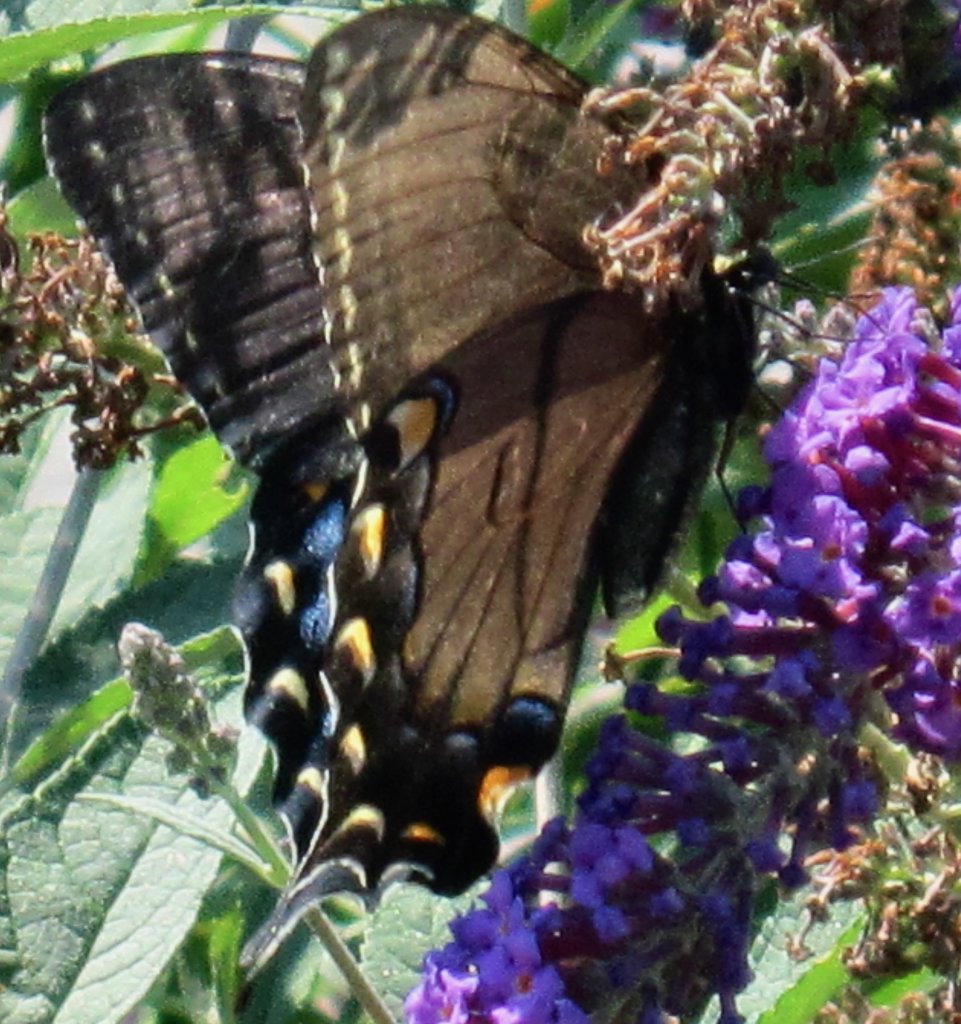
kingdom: Animalia
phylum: Arthropoda
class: Insecta
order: Lepidoptera
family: Papilionidae
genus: Pterourus
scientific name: Pterourus glaucus
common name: Eastern Tiger Swallowtail
